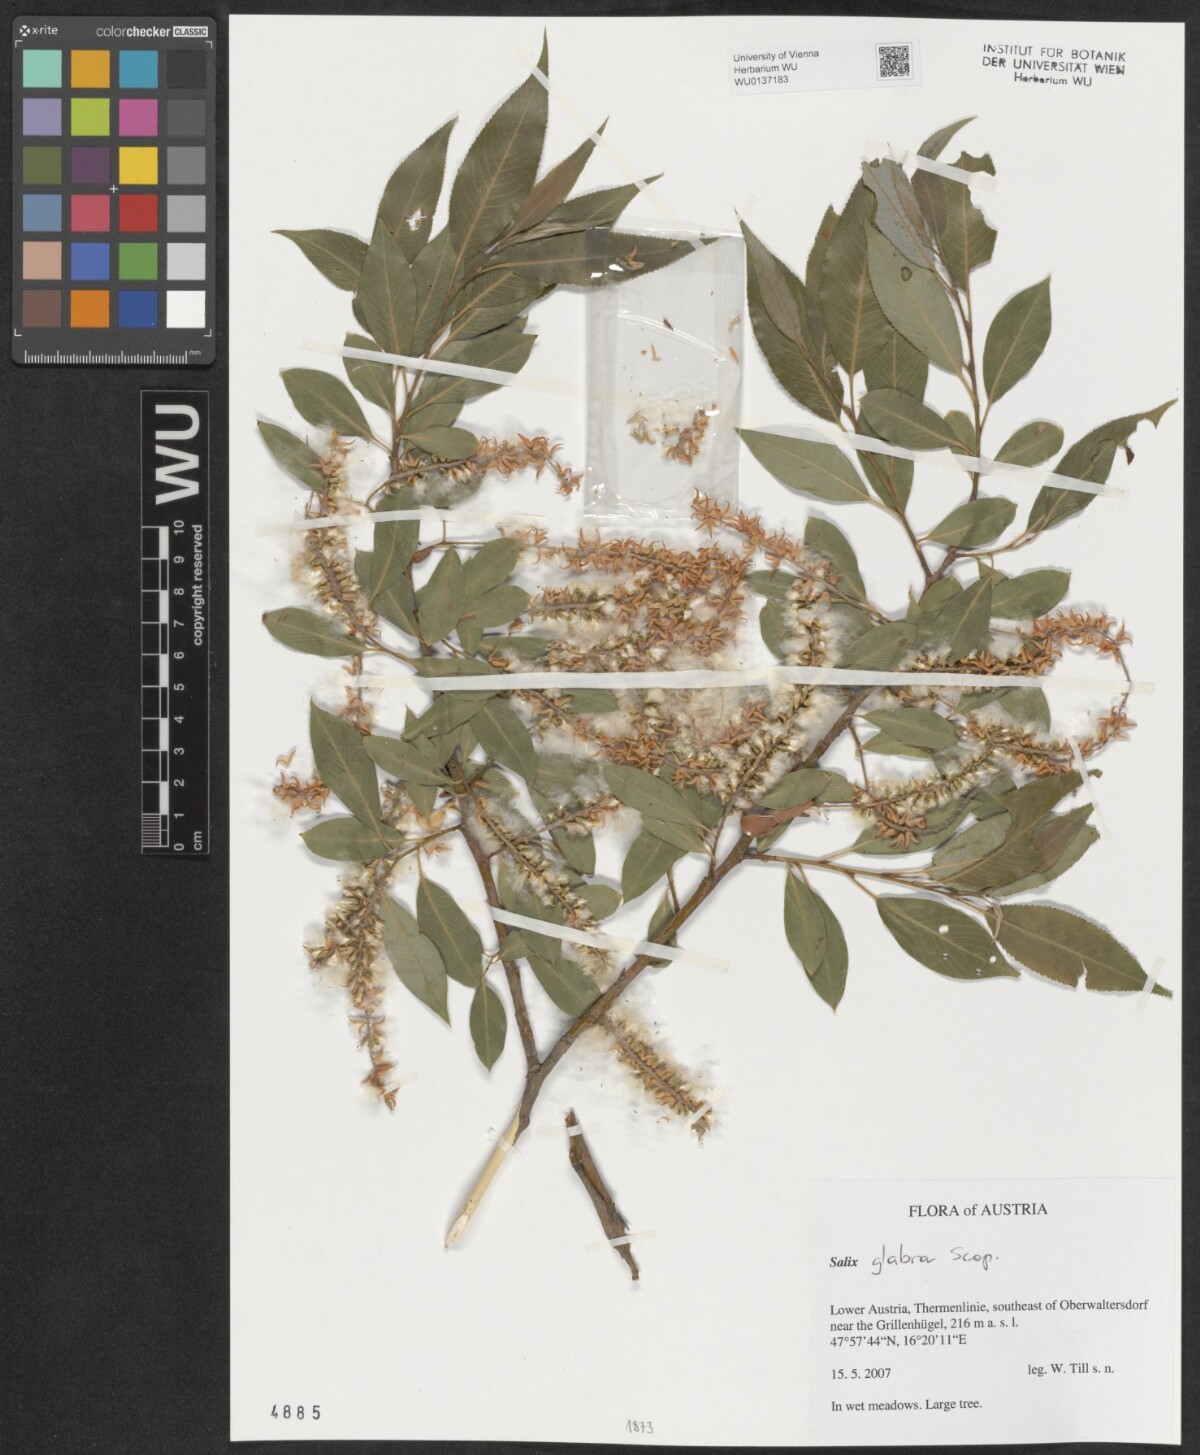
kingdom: Plantae
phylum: Tracheophyta
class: Magnoliopsida
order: Malpighiales
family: Salicaceae
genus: Salix
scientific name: Salix glabra
